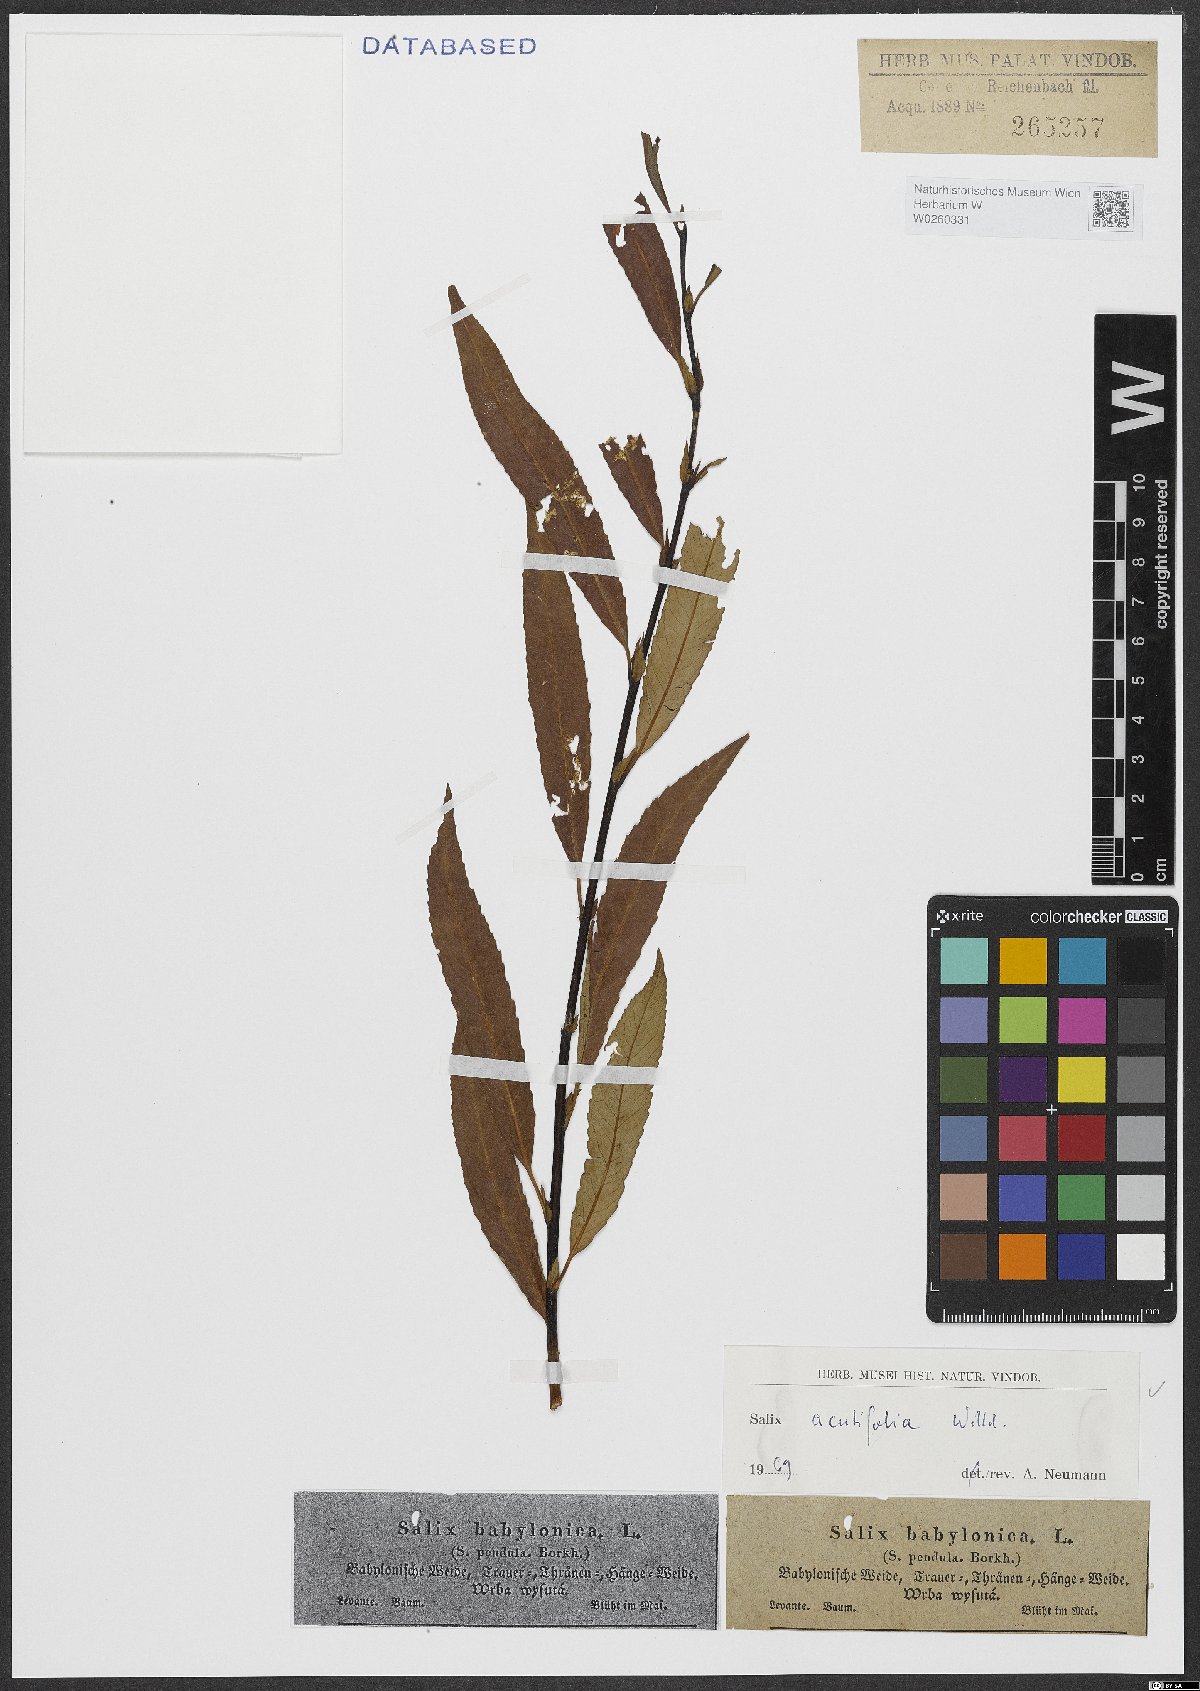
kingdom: Plantae
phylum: Tracheophyta
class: Magnoliopsida
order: Malpighiales
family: Salicaceae
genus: Salix
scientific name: Salix acutifolia
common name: Siberian violet-willow
